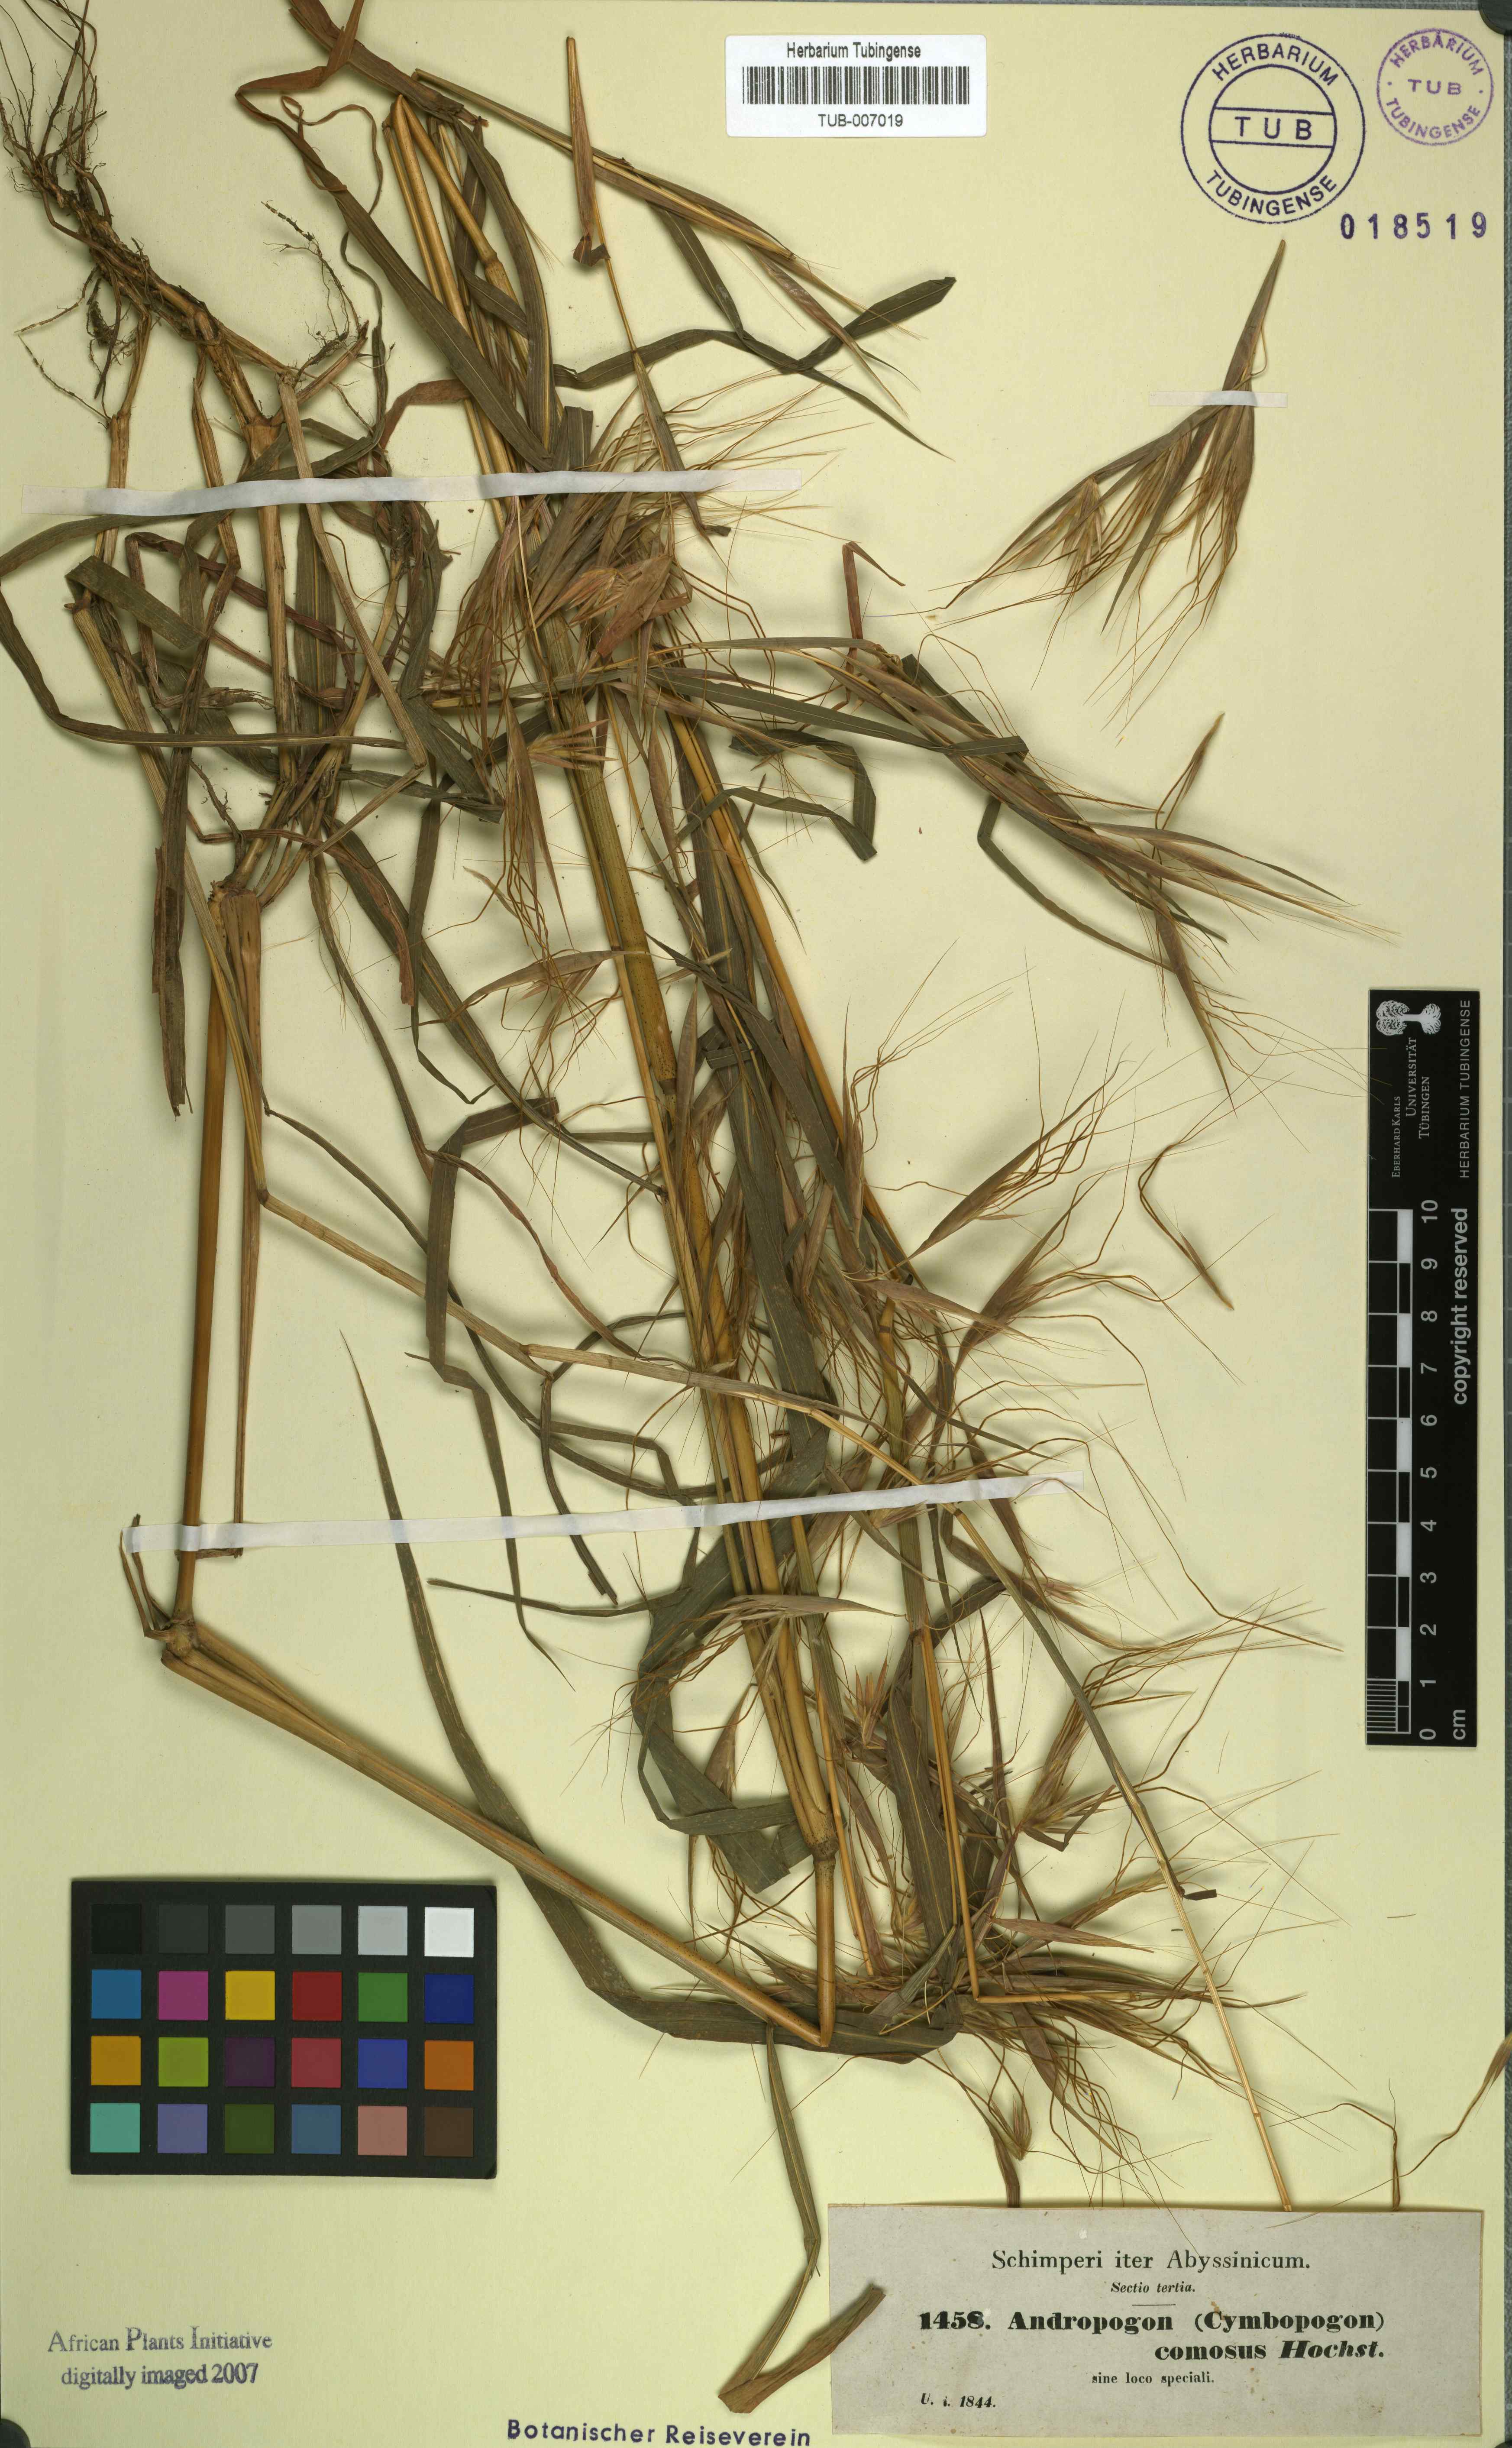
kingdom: Plantae
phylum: Tracheophyta
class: Liliopsida
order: Poales
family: Poaceae
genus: Hyparrhenia
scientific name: Hyparrhenia coleotricha
